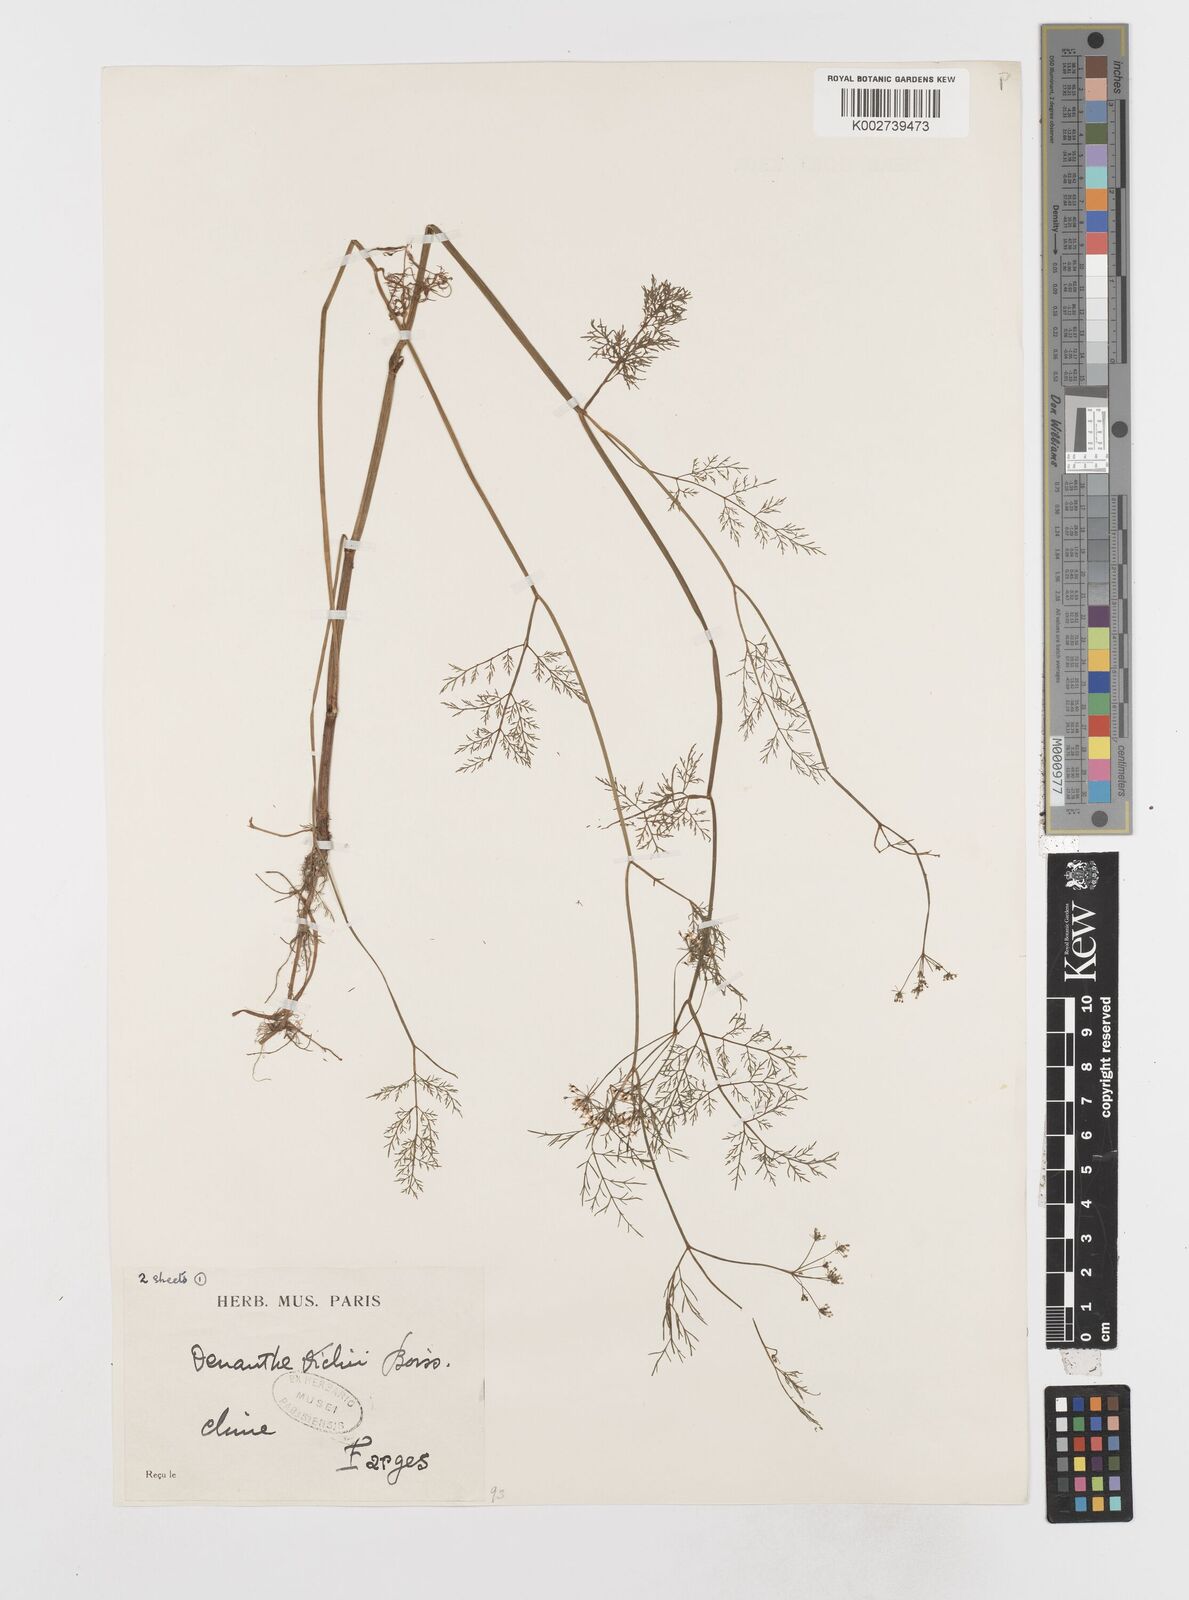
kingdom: Plantae
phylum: Tracheophyta
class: Magnoliopsida
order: Apiales
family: Apiaceae
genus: Oenanthe
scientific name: Oenanthe dielsii
